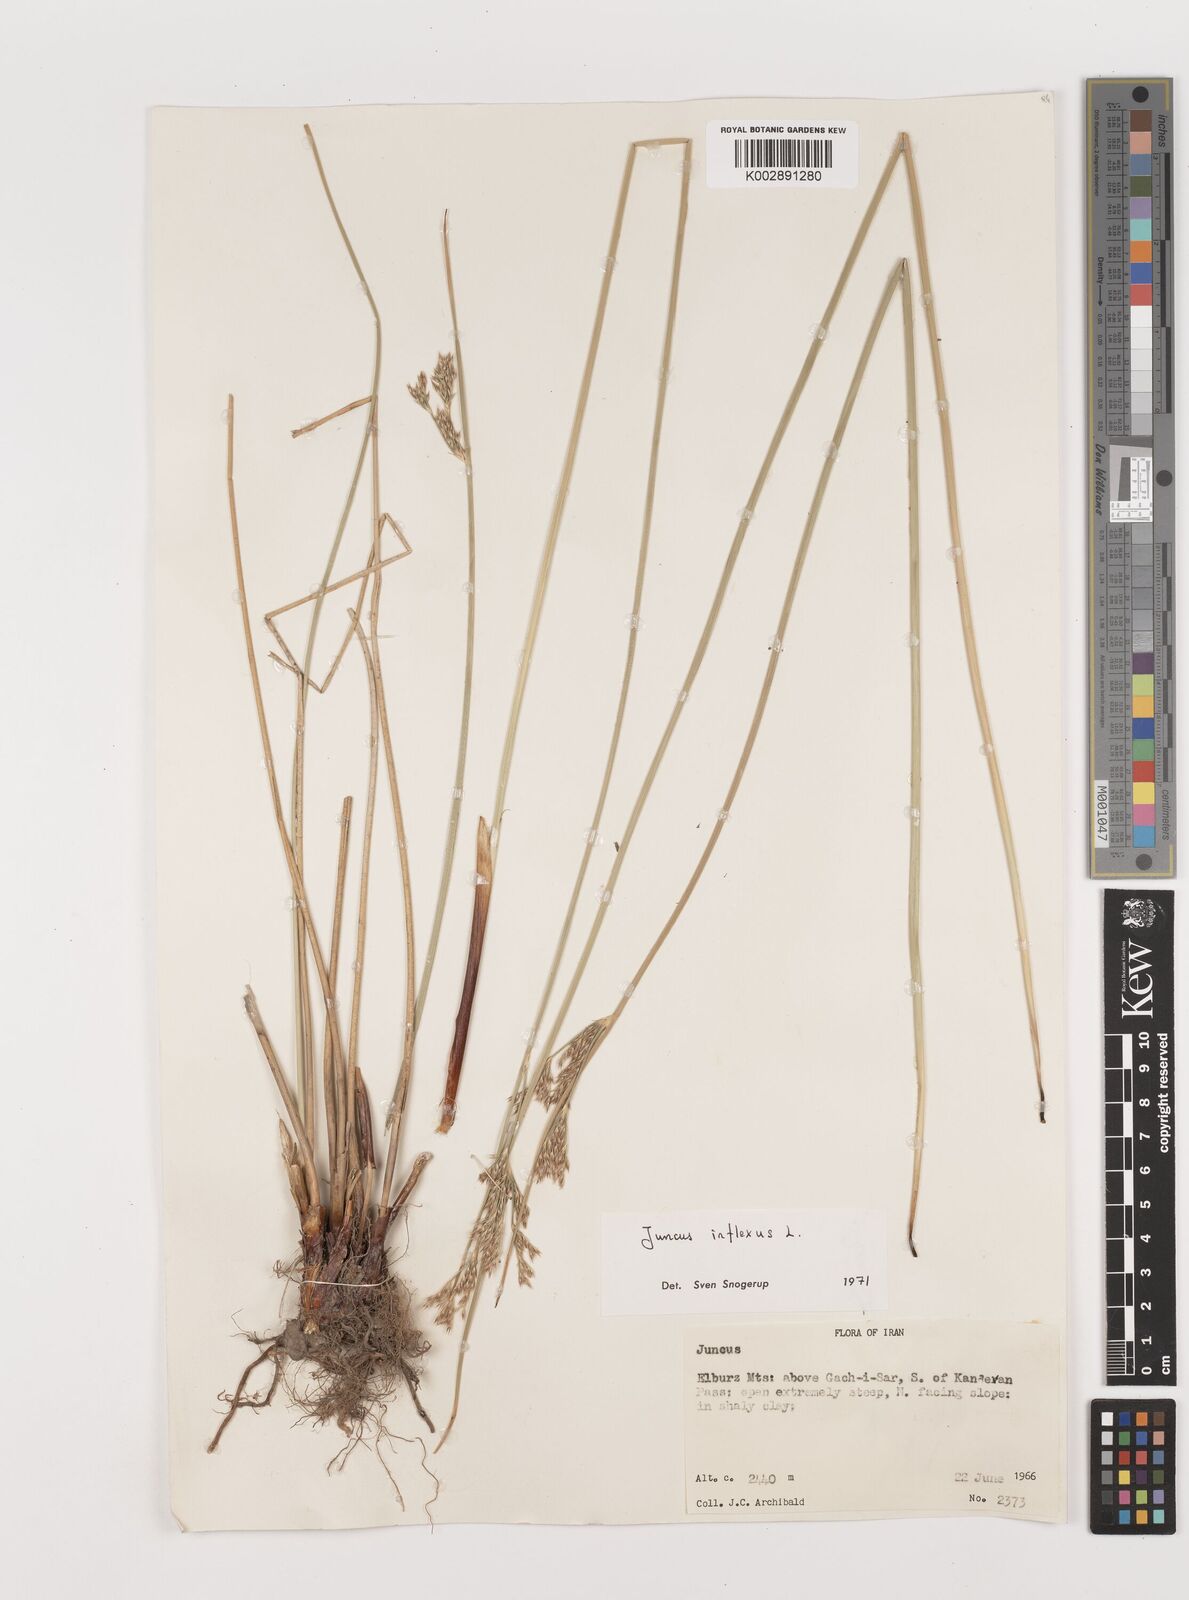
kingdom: Plantae
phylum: Tracheophyta
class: Liliopsida
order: Poales
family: Juncaceae
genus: Juncus
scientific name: Juncus inflexus
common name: Hard rush
